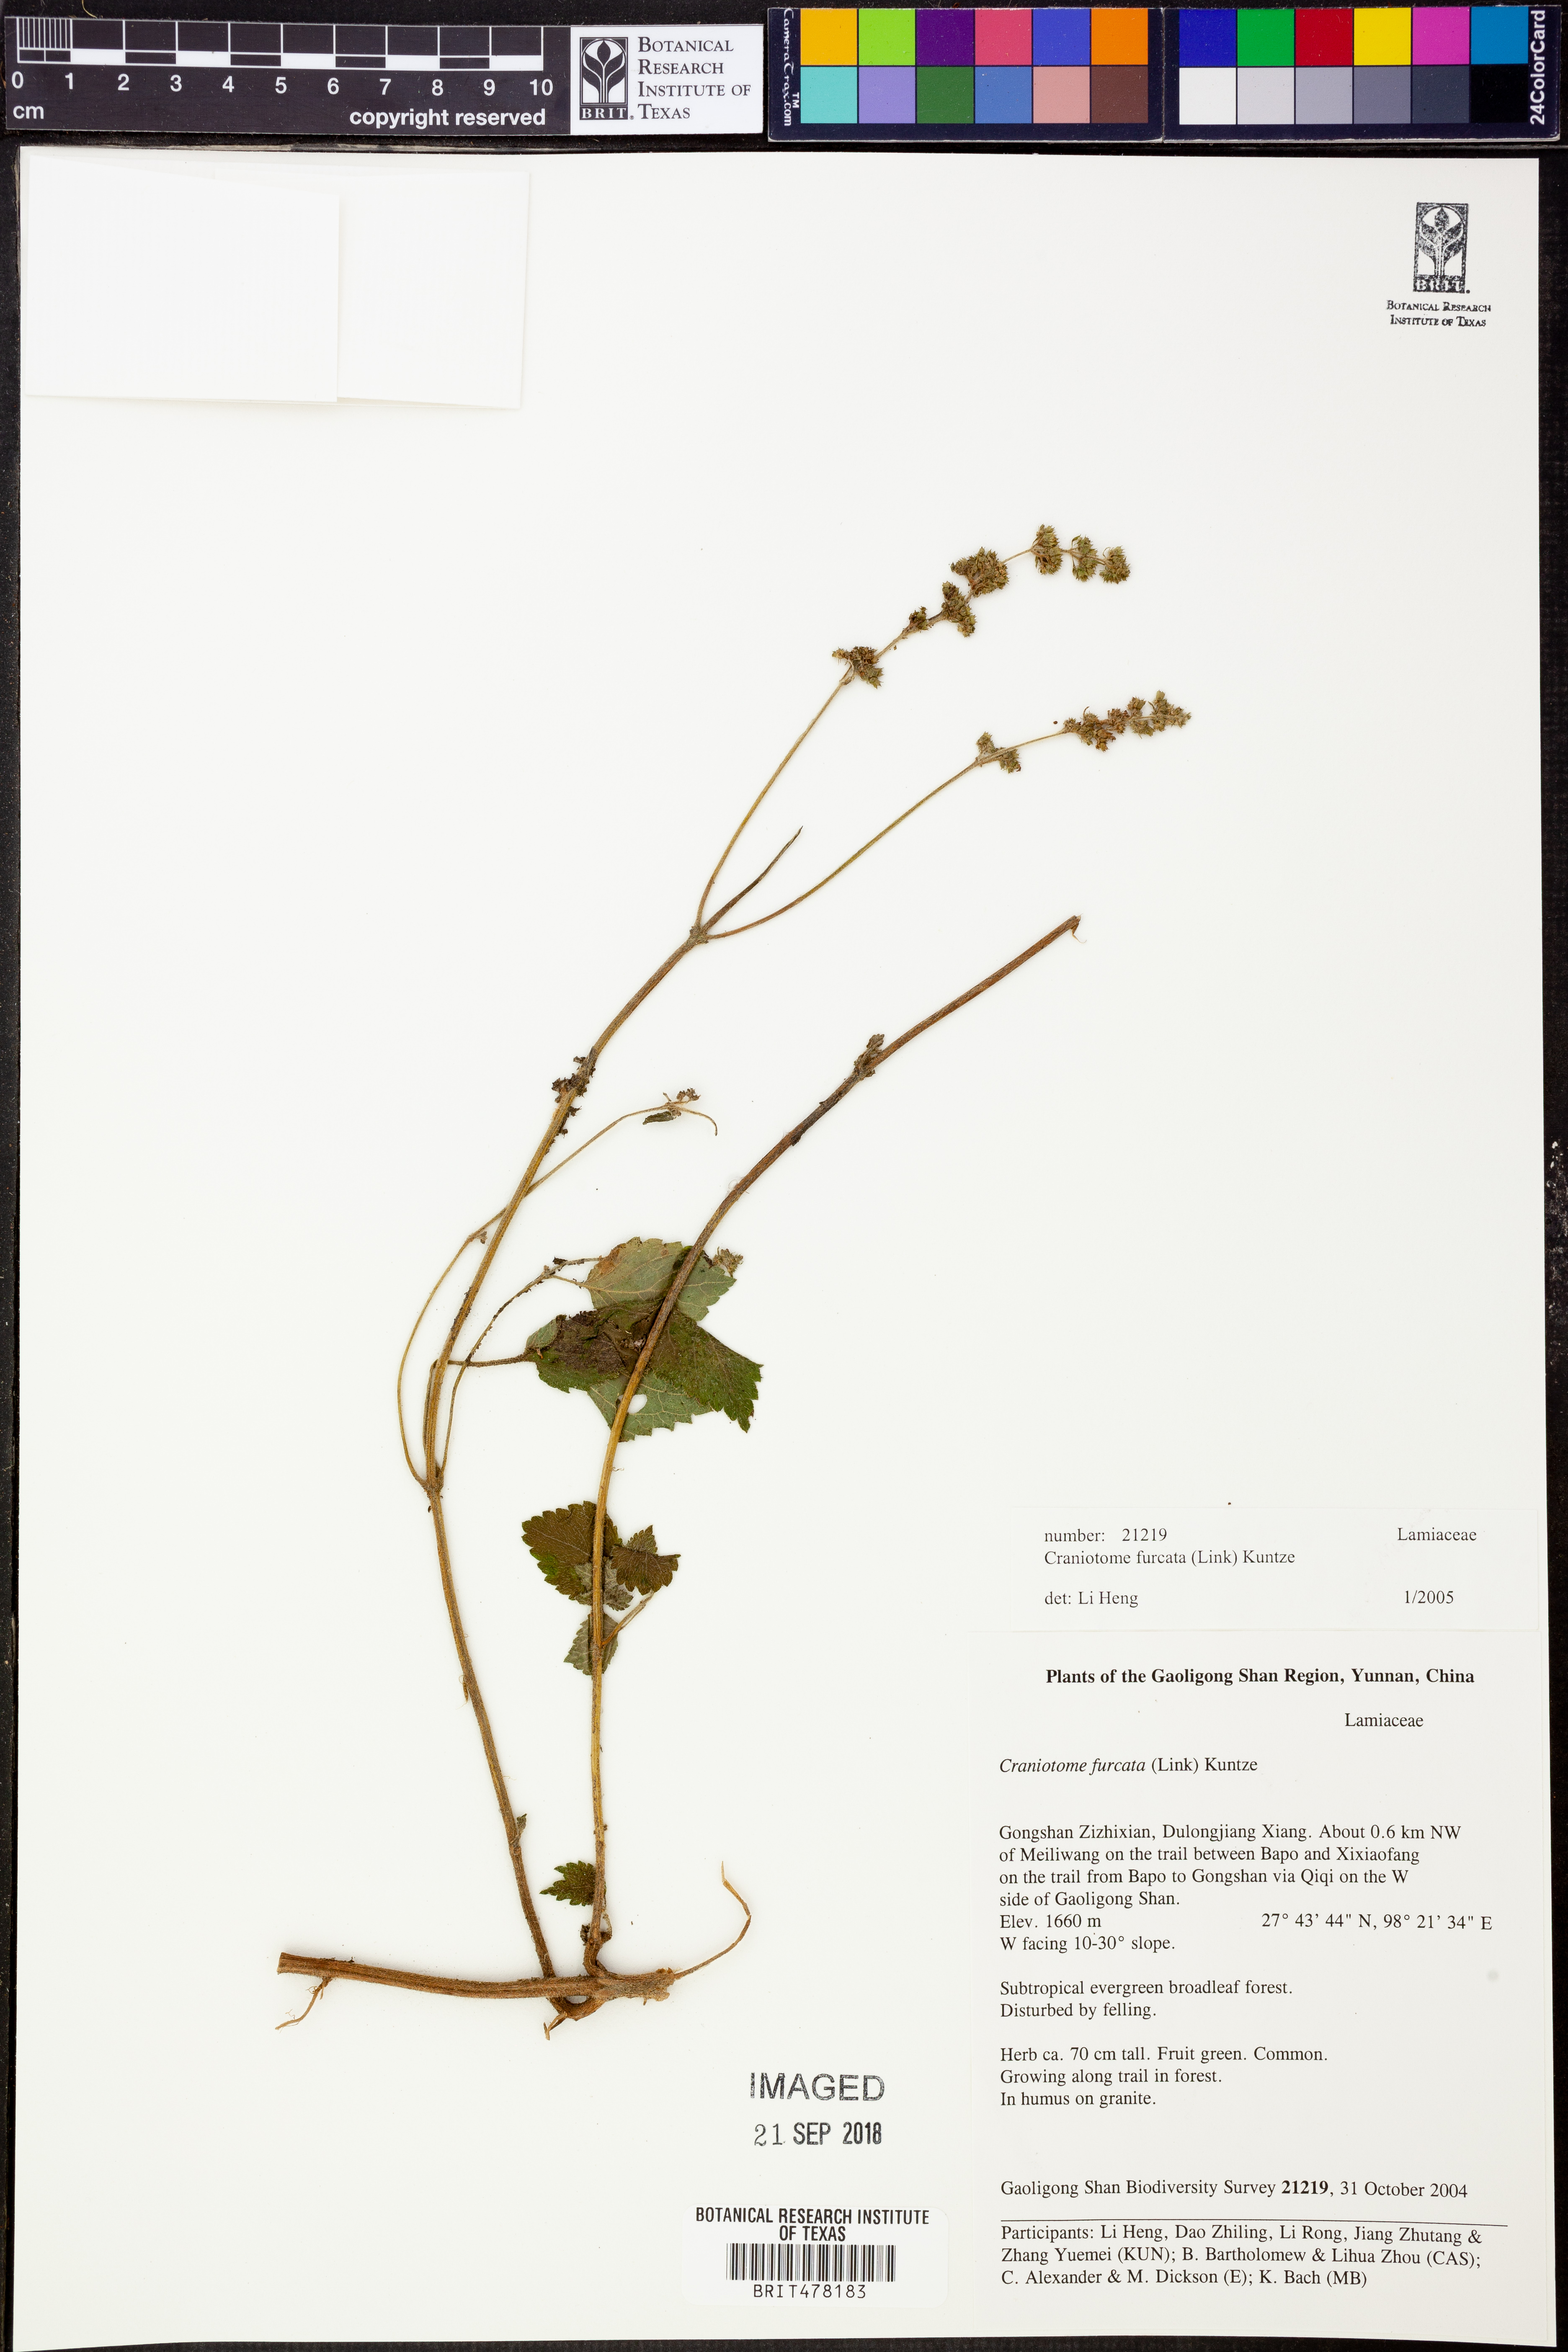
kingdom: Plantae
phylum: Tracheophyta
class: Magnoliopsida
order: Lamiales
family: Lamiaceae
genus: Craniotome
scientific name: Craniotome furcata
